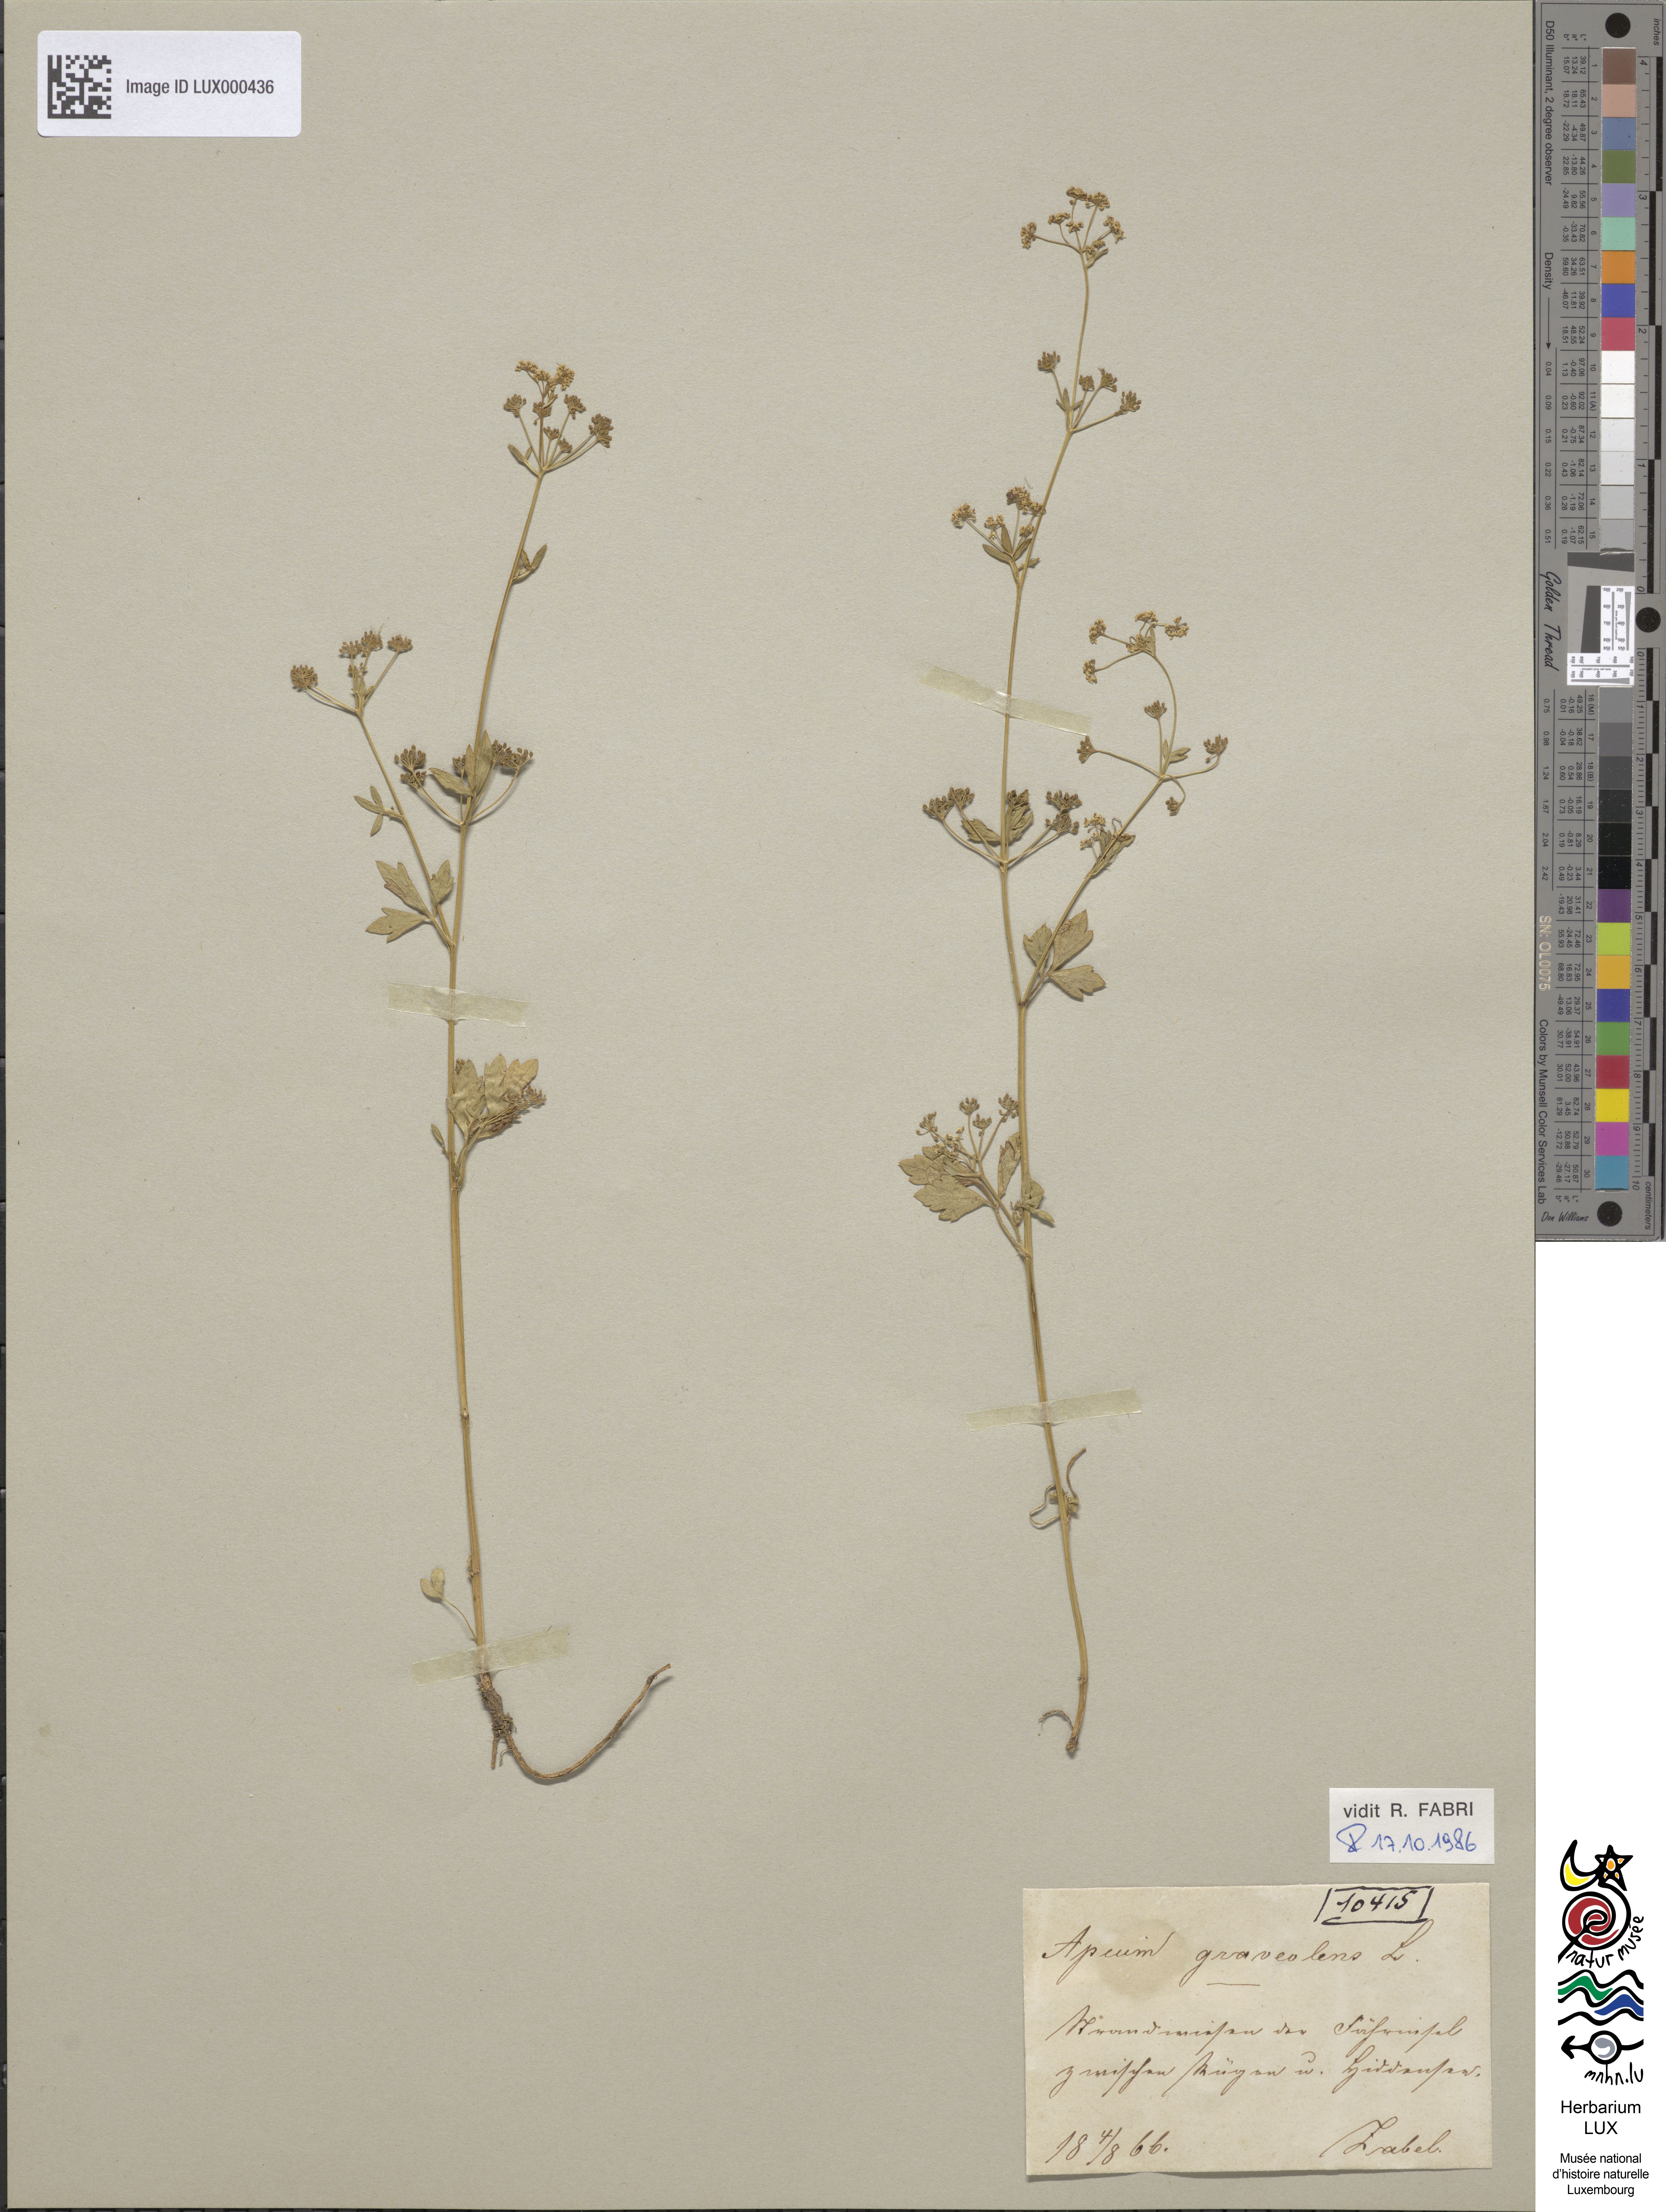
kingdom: Plantae
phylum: Tracheophyta
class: Magnoliopsida
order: Apiales
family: Apiaceae
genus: Apium
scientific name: Apium graveolens
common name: Wild celery
